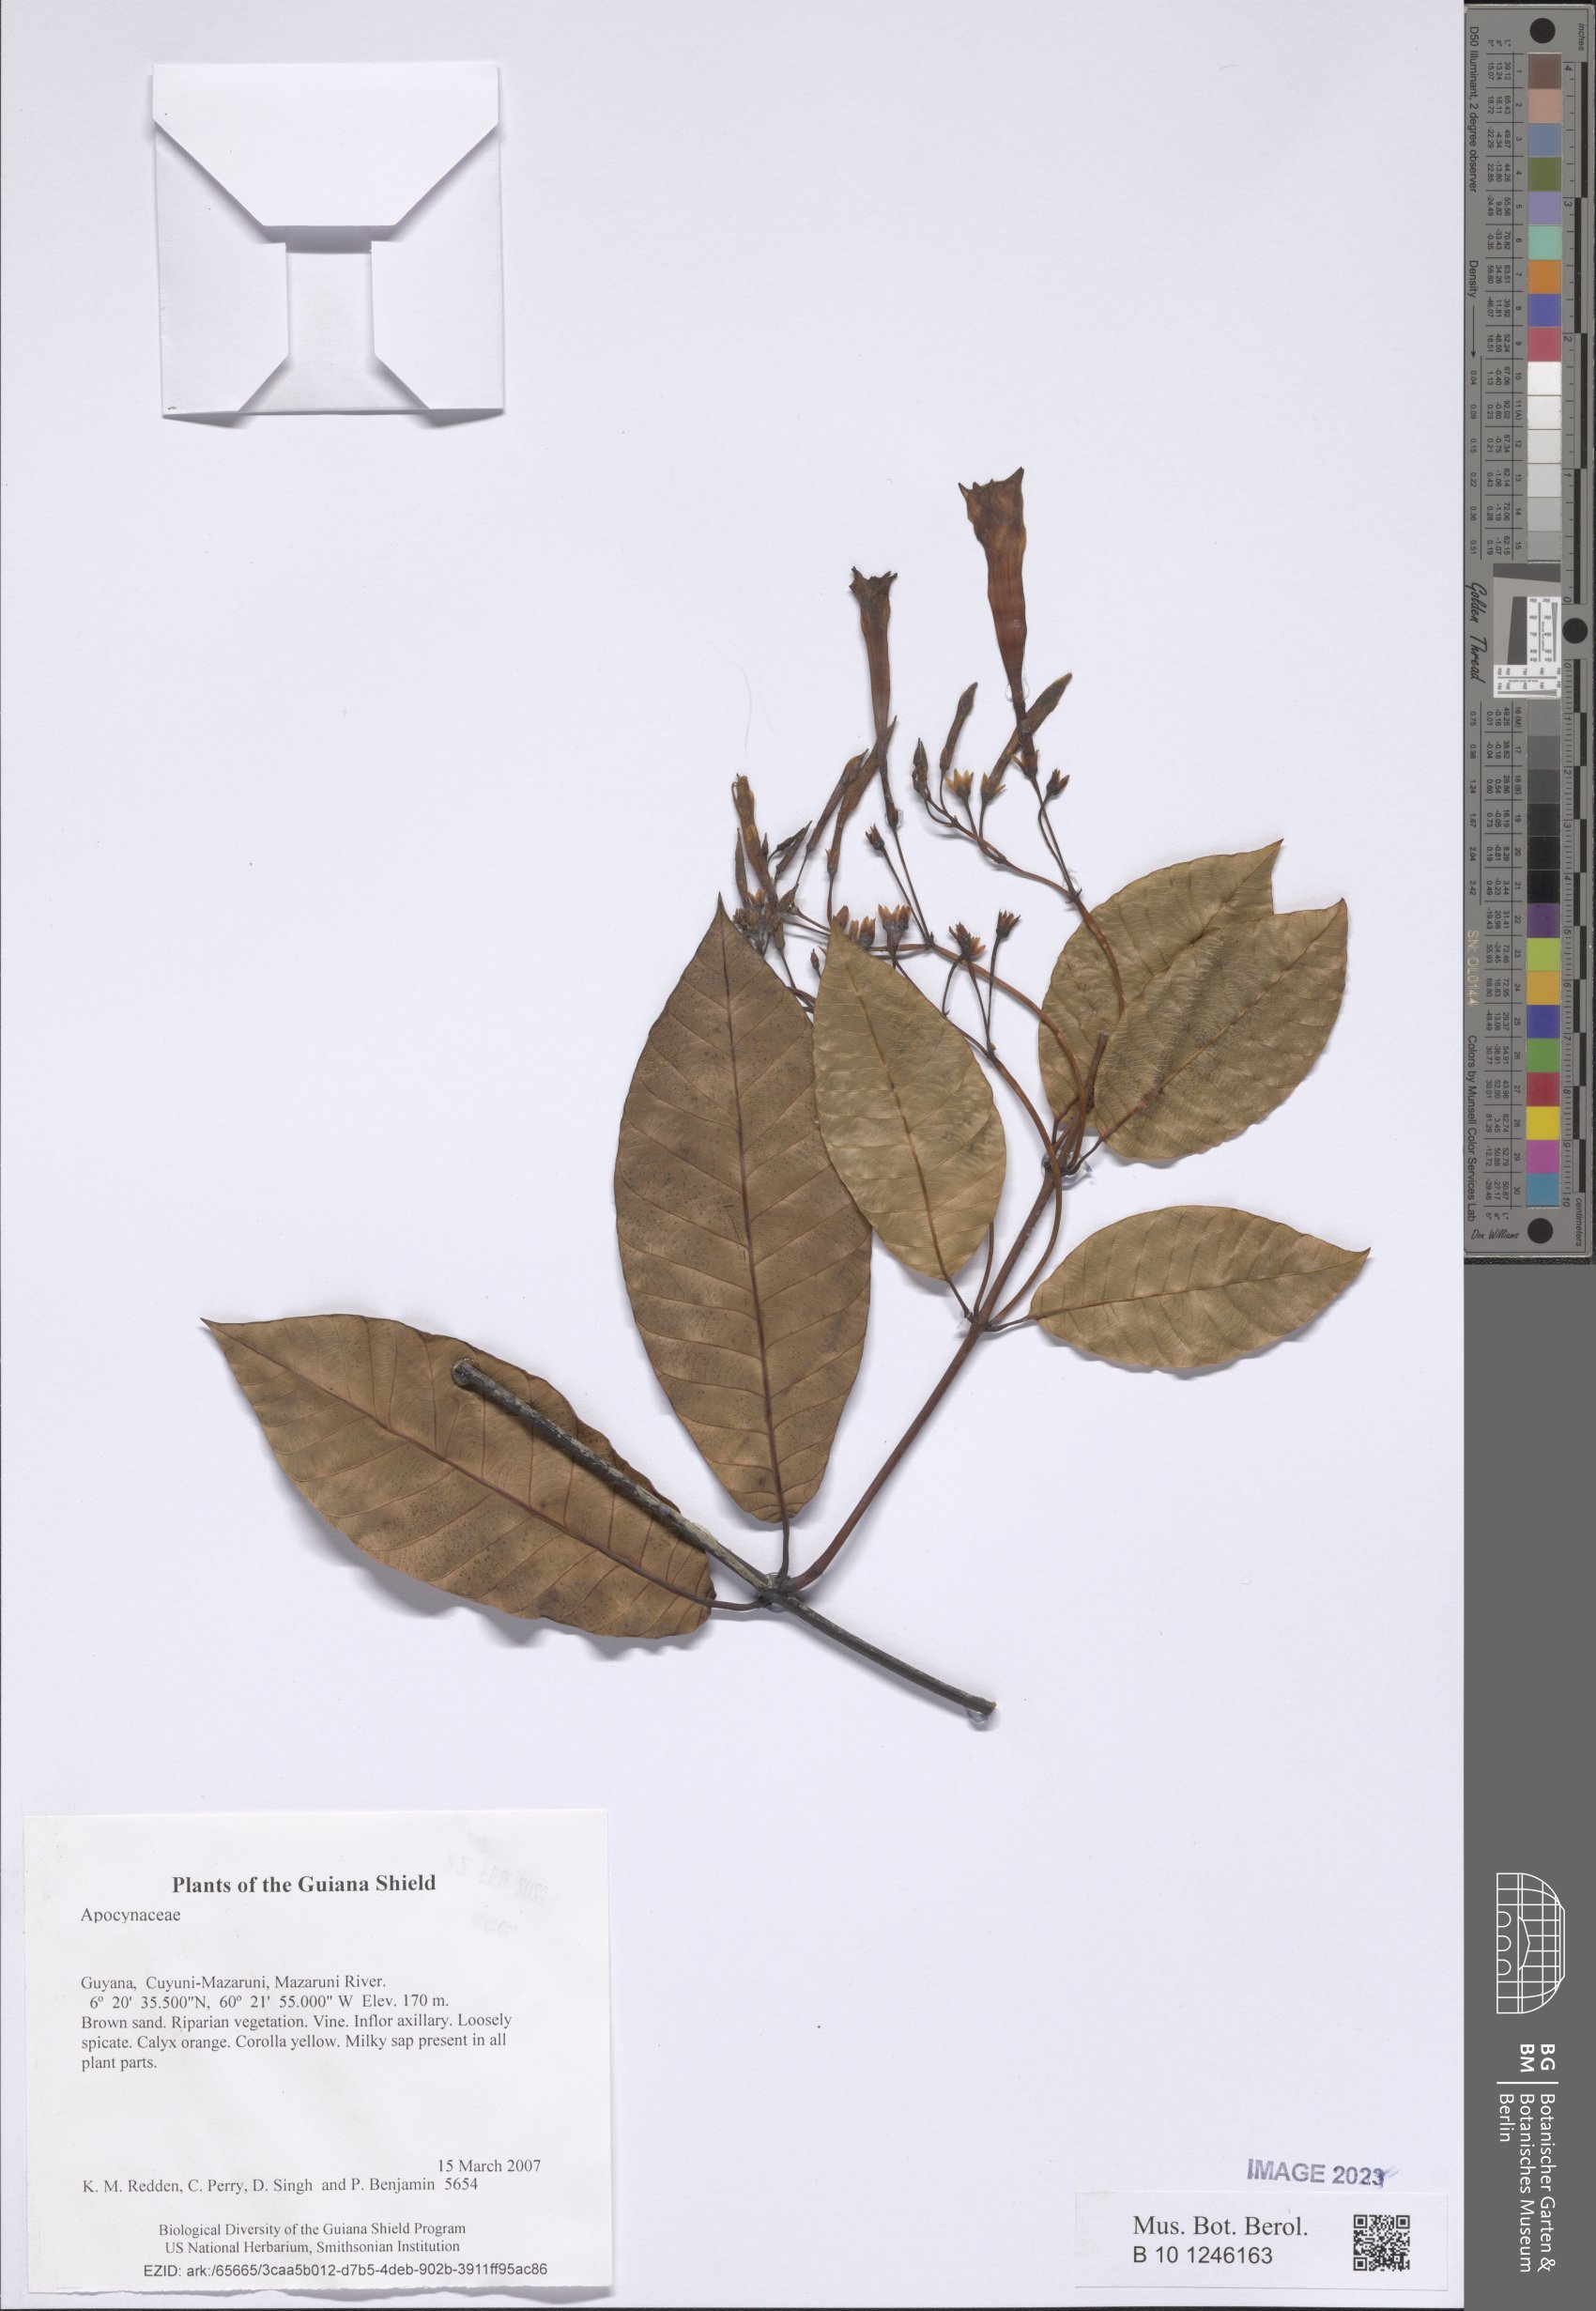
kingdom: Plantae
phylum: Tracheophyta
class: Magnoliopsida
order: Gentianales
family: Apocynaceae
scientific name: Apocynaceae
